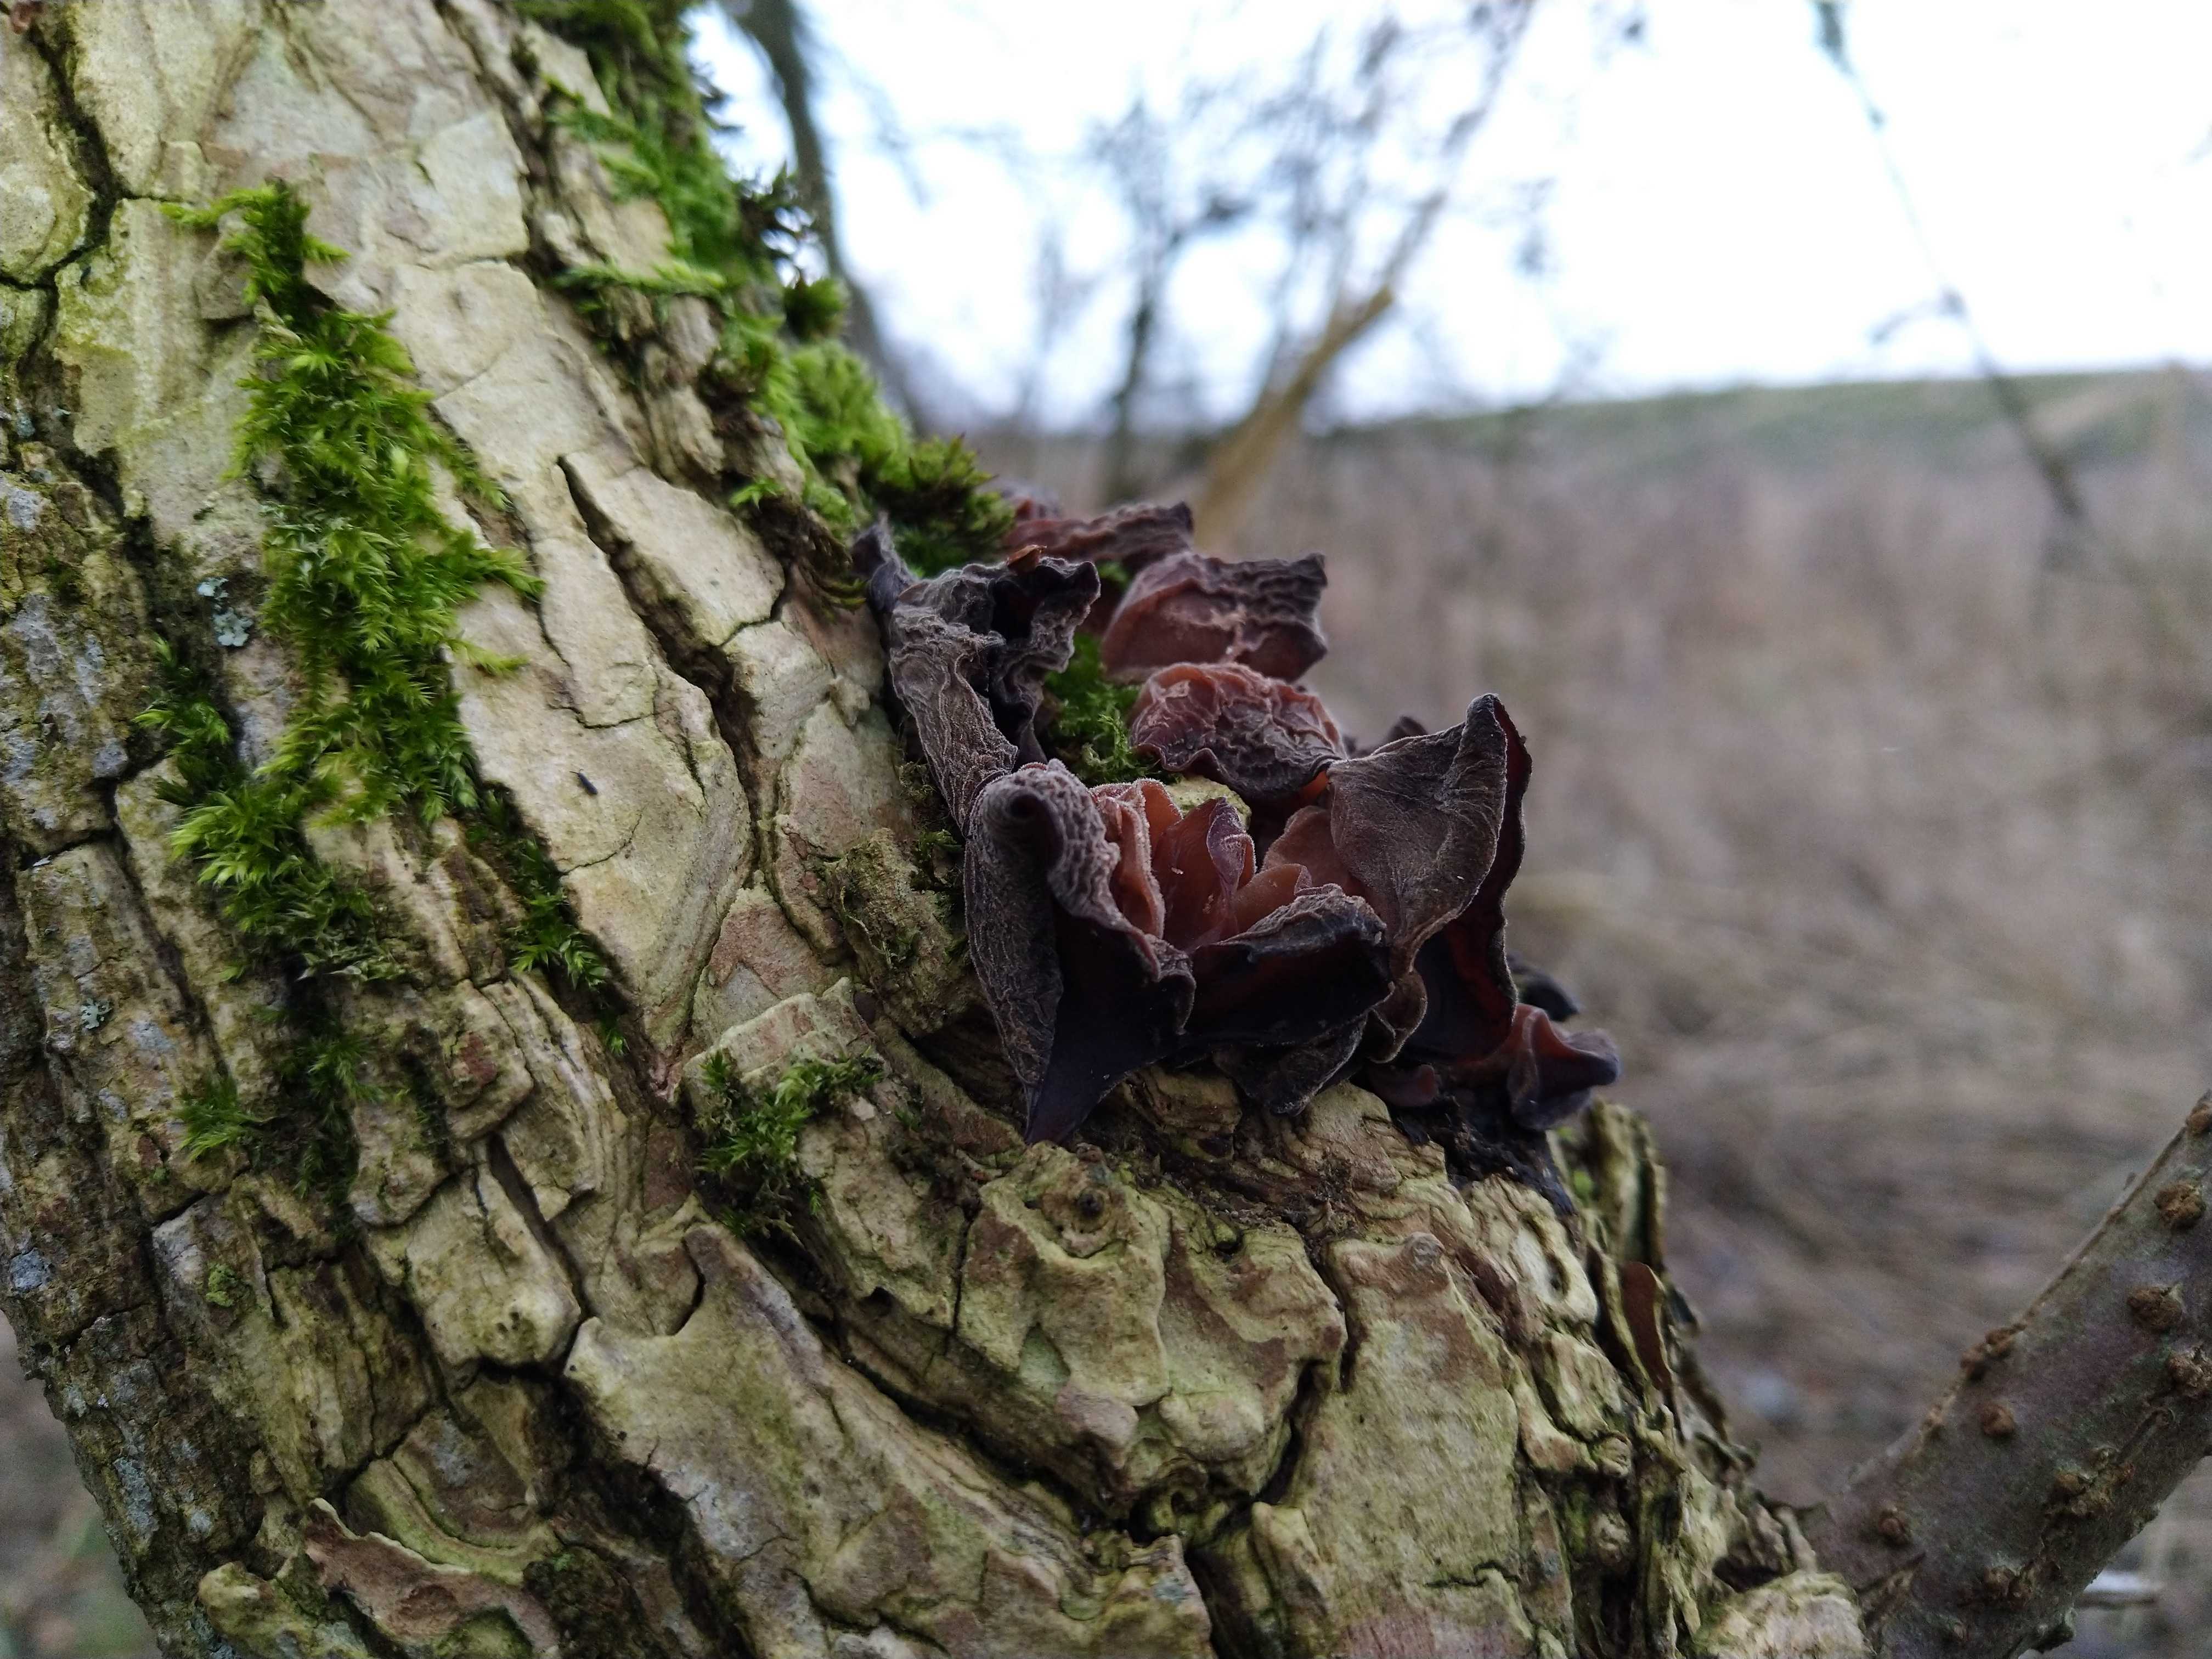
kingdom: Fungi
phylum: Basidiomycota
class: Agaricomycetes
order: Auriculariales
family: Auriculariaceae
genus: Auricularia
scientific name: Auricularia auricula-judae
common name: almindelig judasøre
